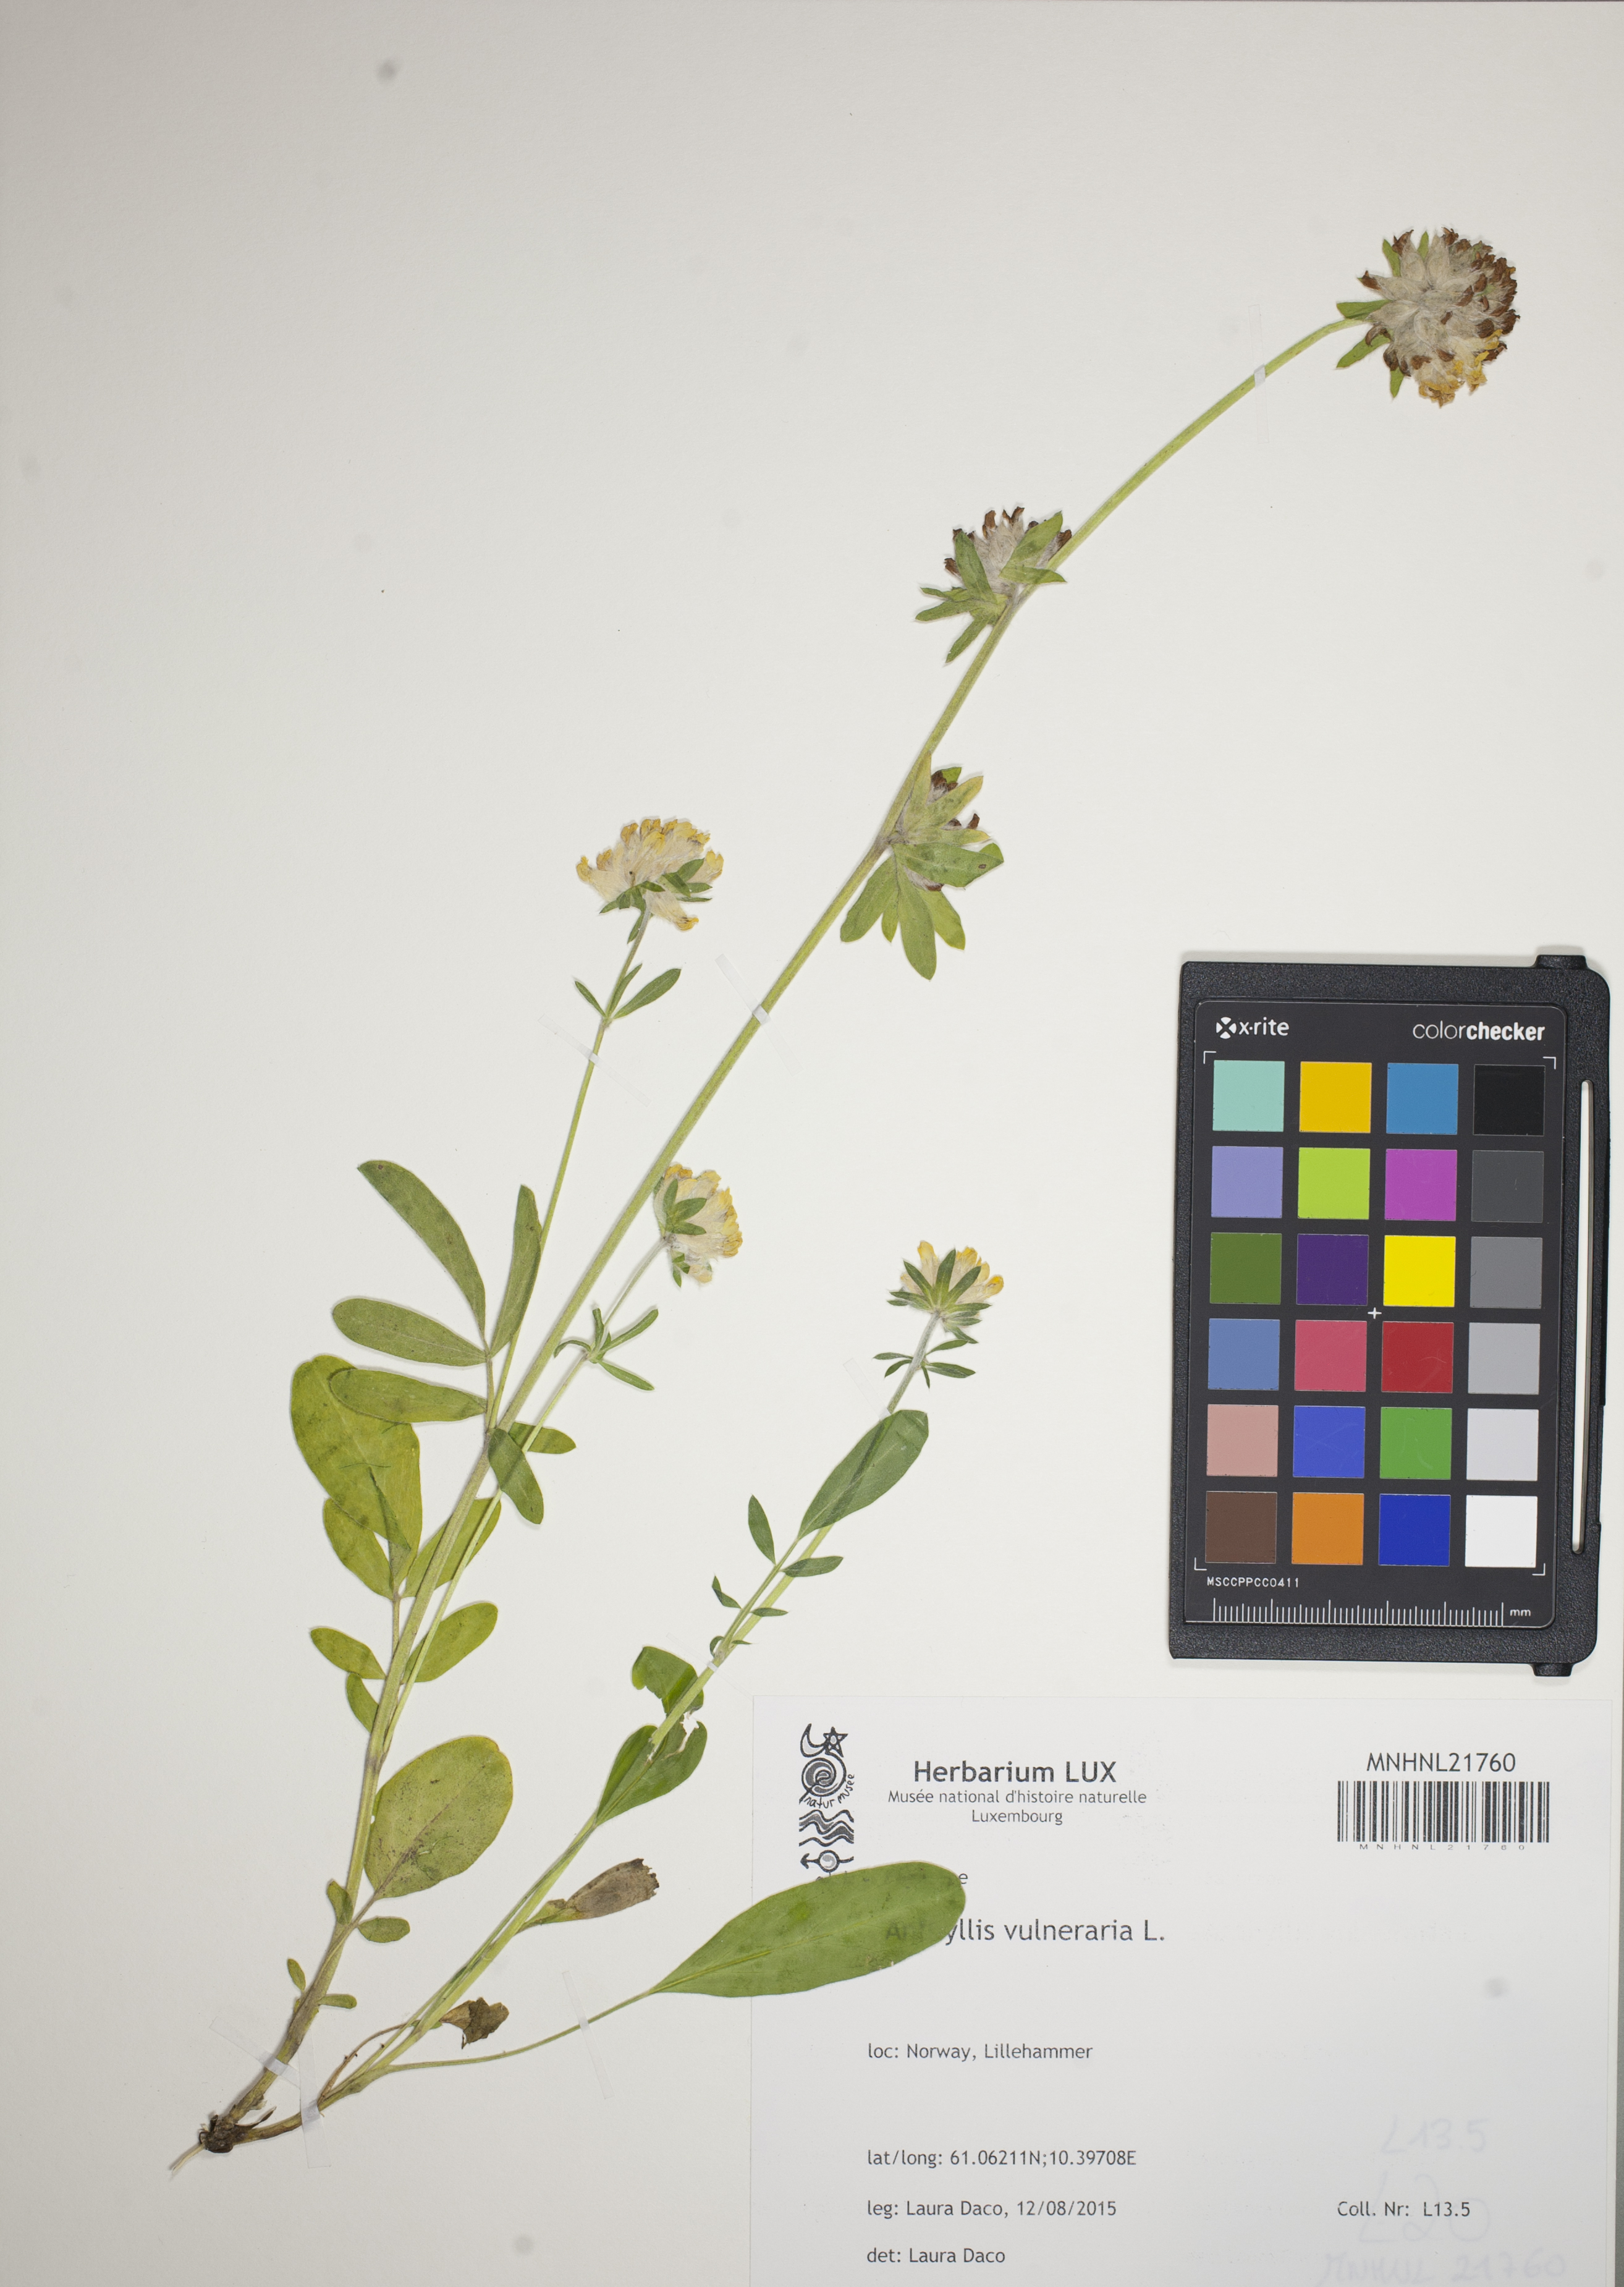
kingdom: Plantae
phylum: Tracheophyta
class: Magnoliopsida
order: Fabales
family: Fabaceae
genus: Anthyllis
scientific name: Anthyllis vulneraria
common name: Kidney vetch
